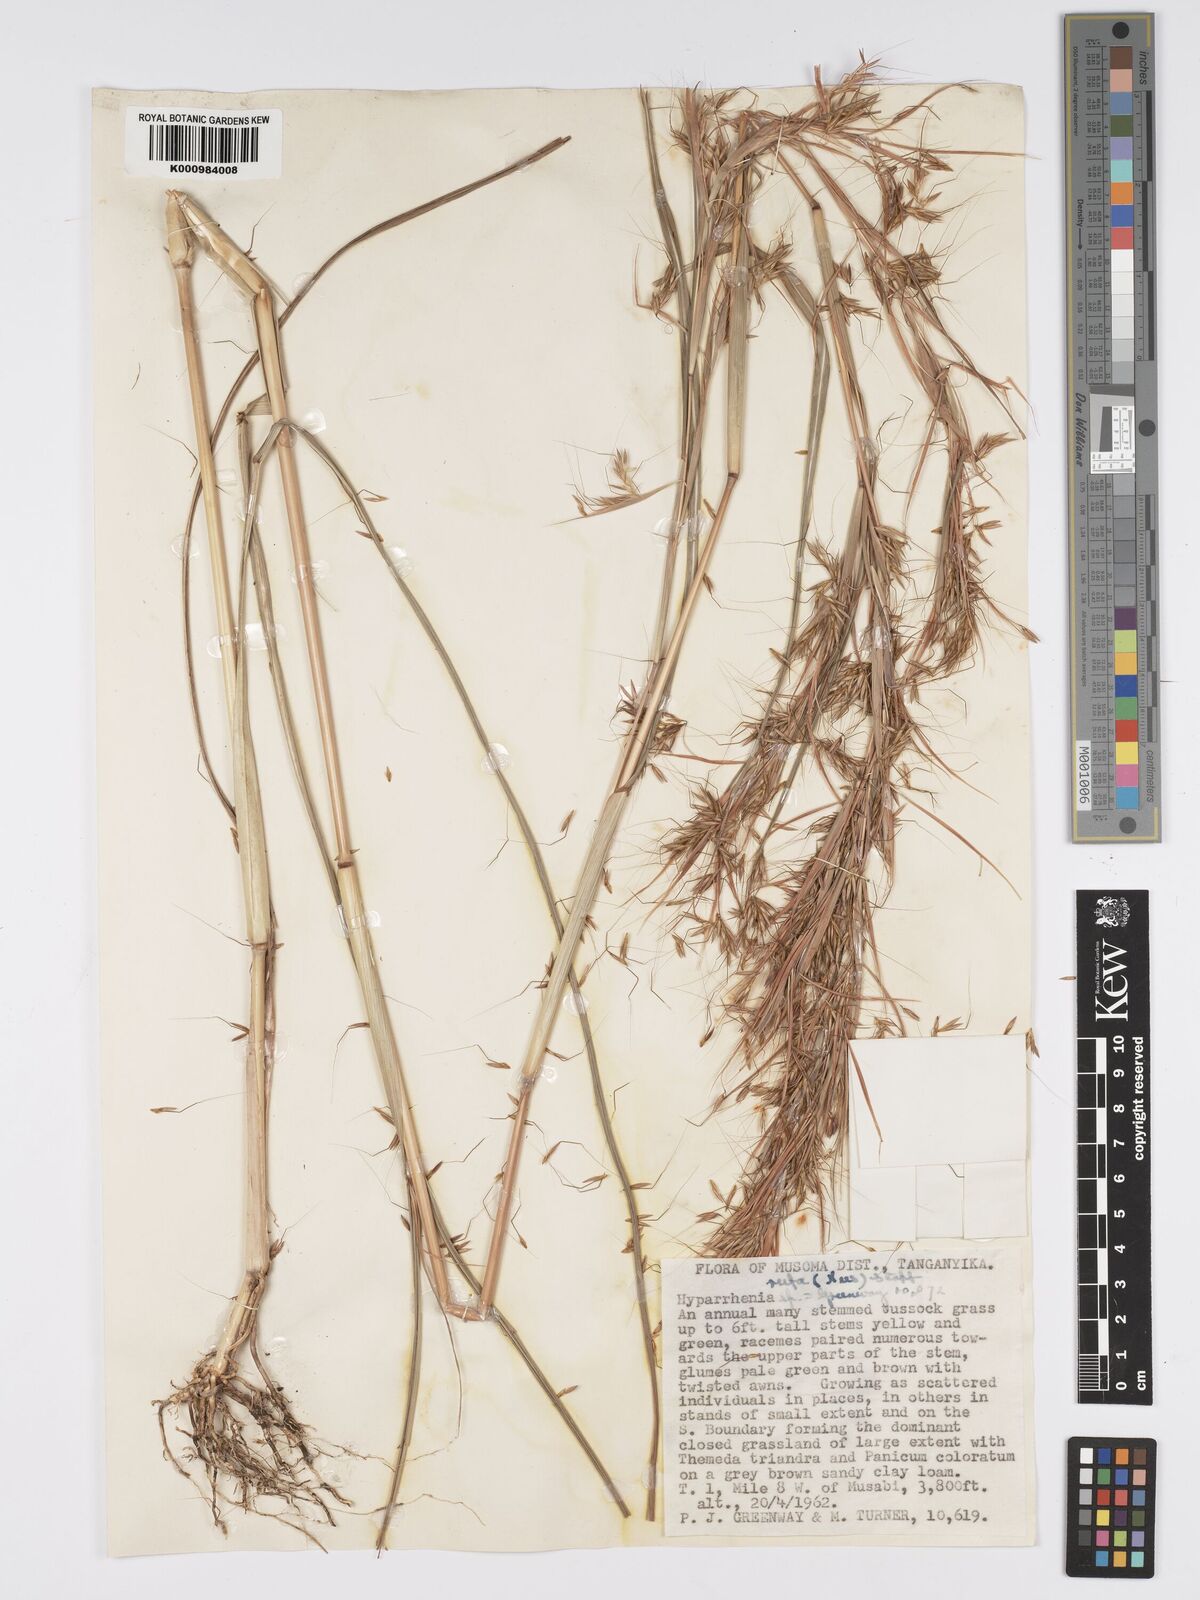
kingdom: Plantae
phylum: Tracheophyta
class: Liliopsida
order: Poales
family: Poaceae
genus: Hyparrhenia
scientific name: Hyparrhenia rufa
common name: Jaraguagrass
